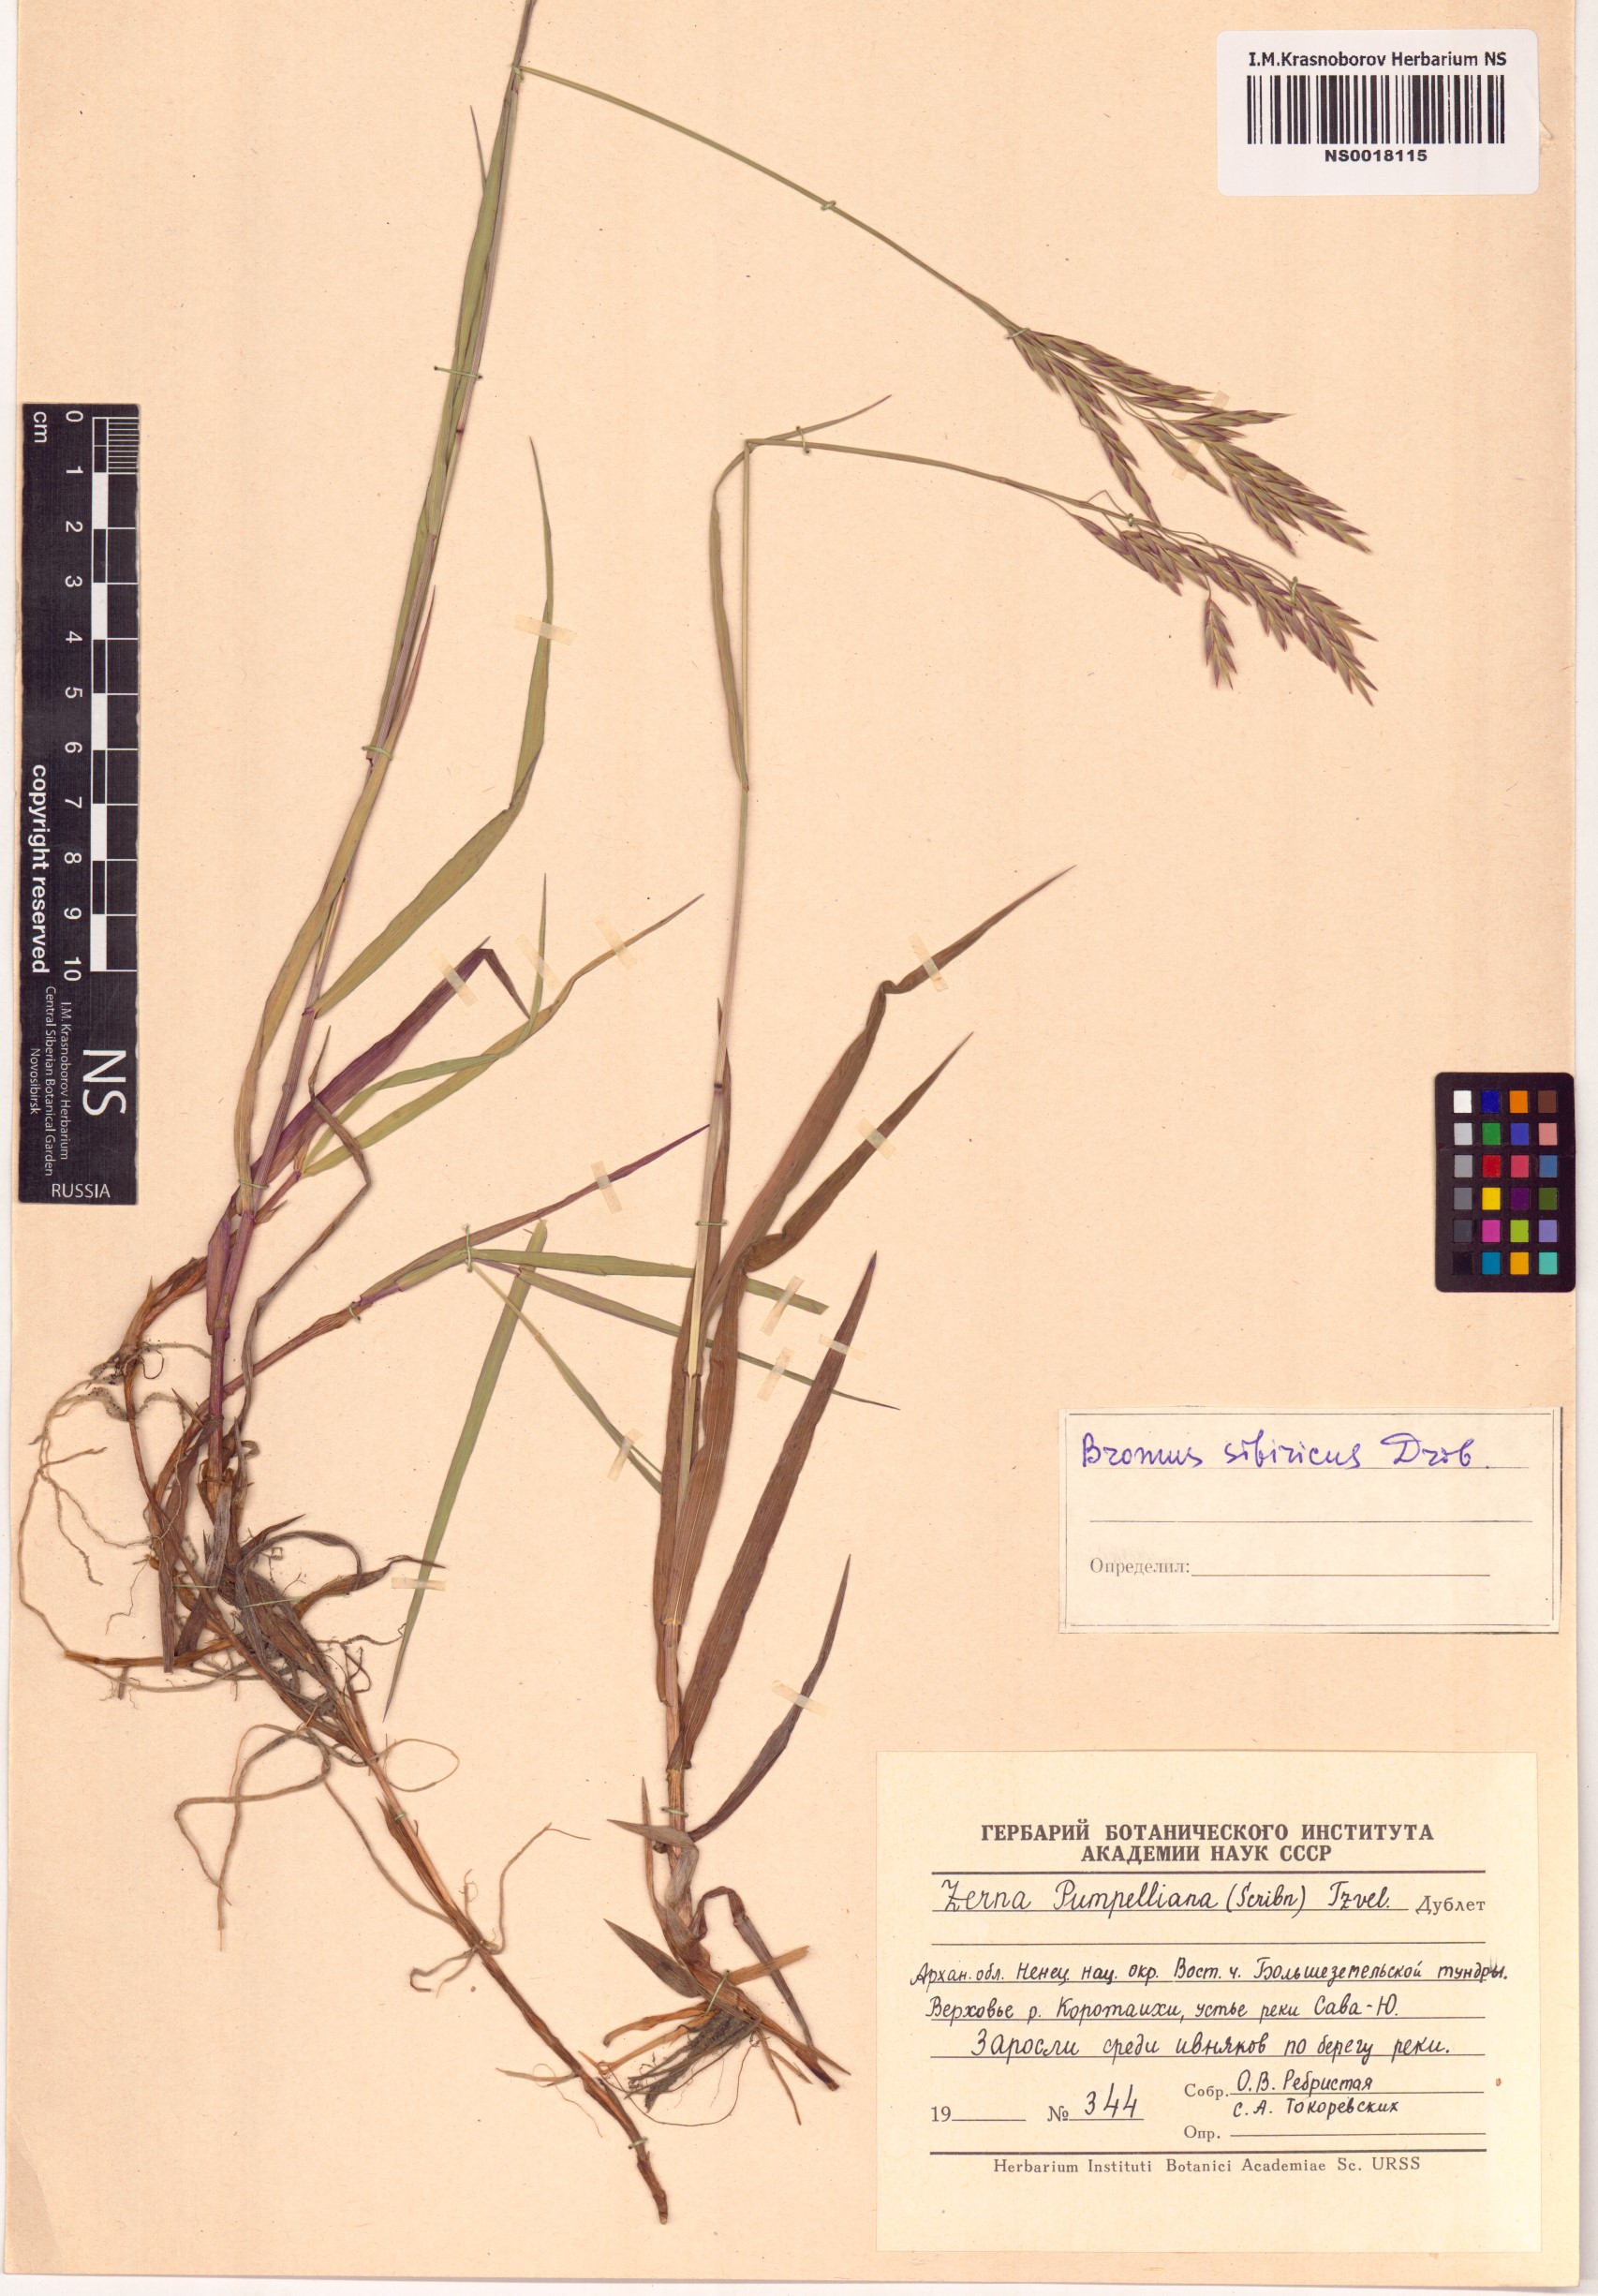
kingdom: Plantae
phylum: Tracheophyta
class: Liliopsida
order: Poales
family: Poaceae
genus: Bromus
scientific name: Bromus pumpellianus
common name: Pumpelly's brome
